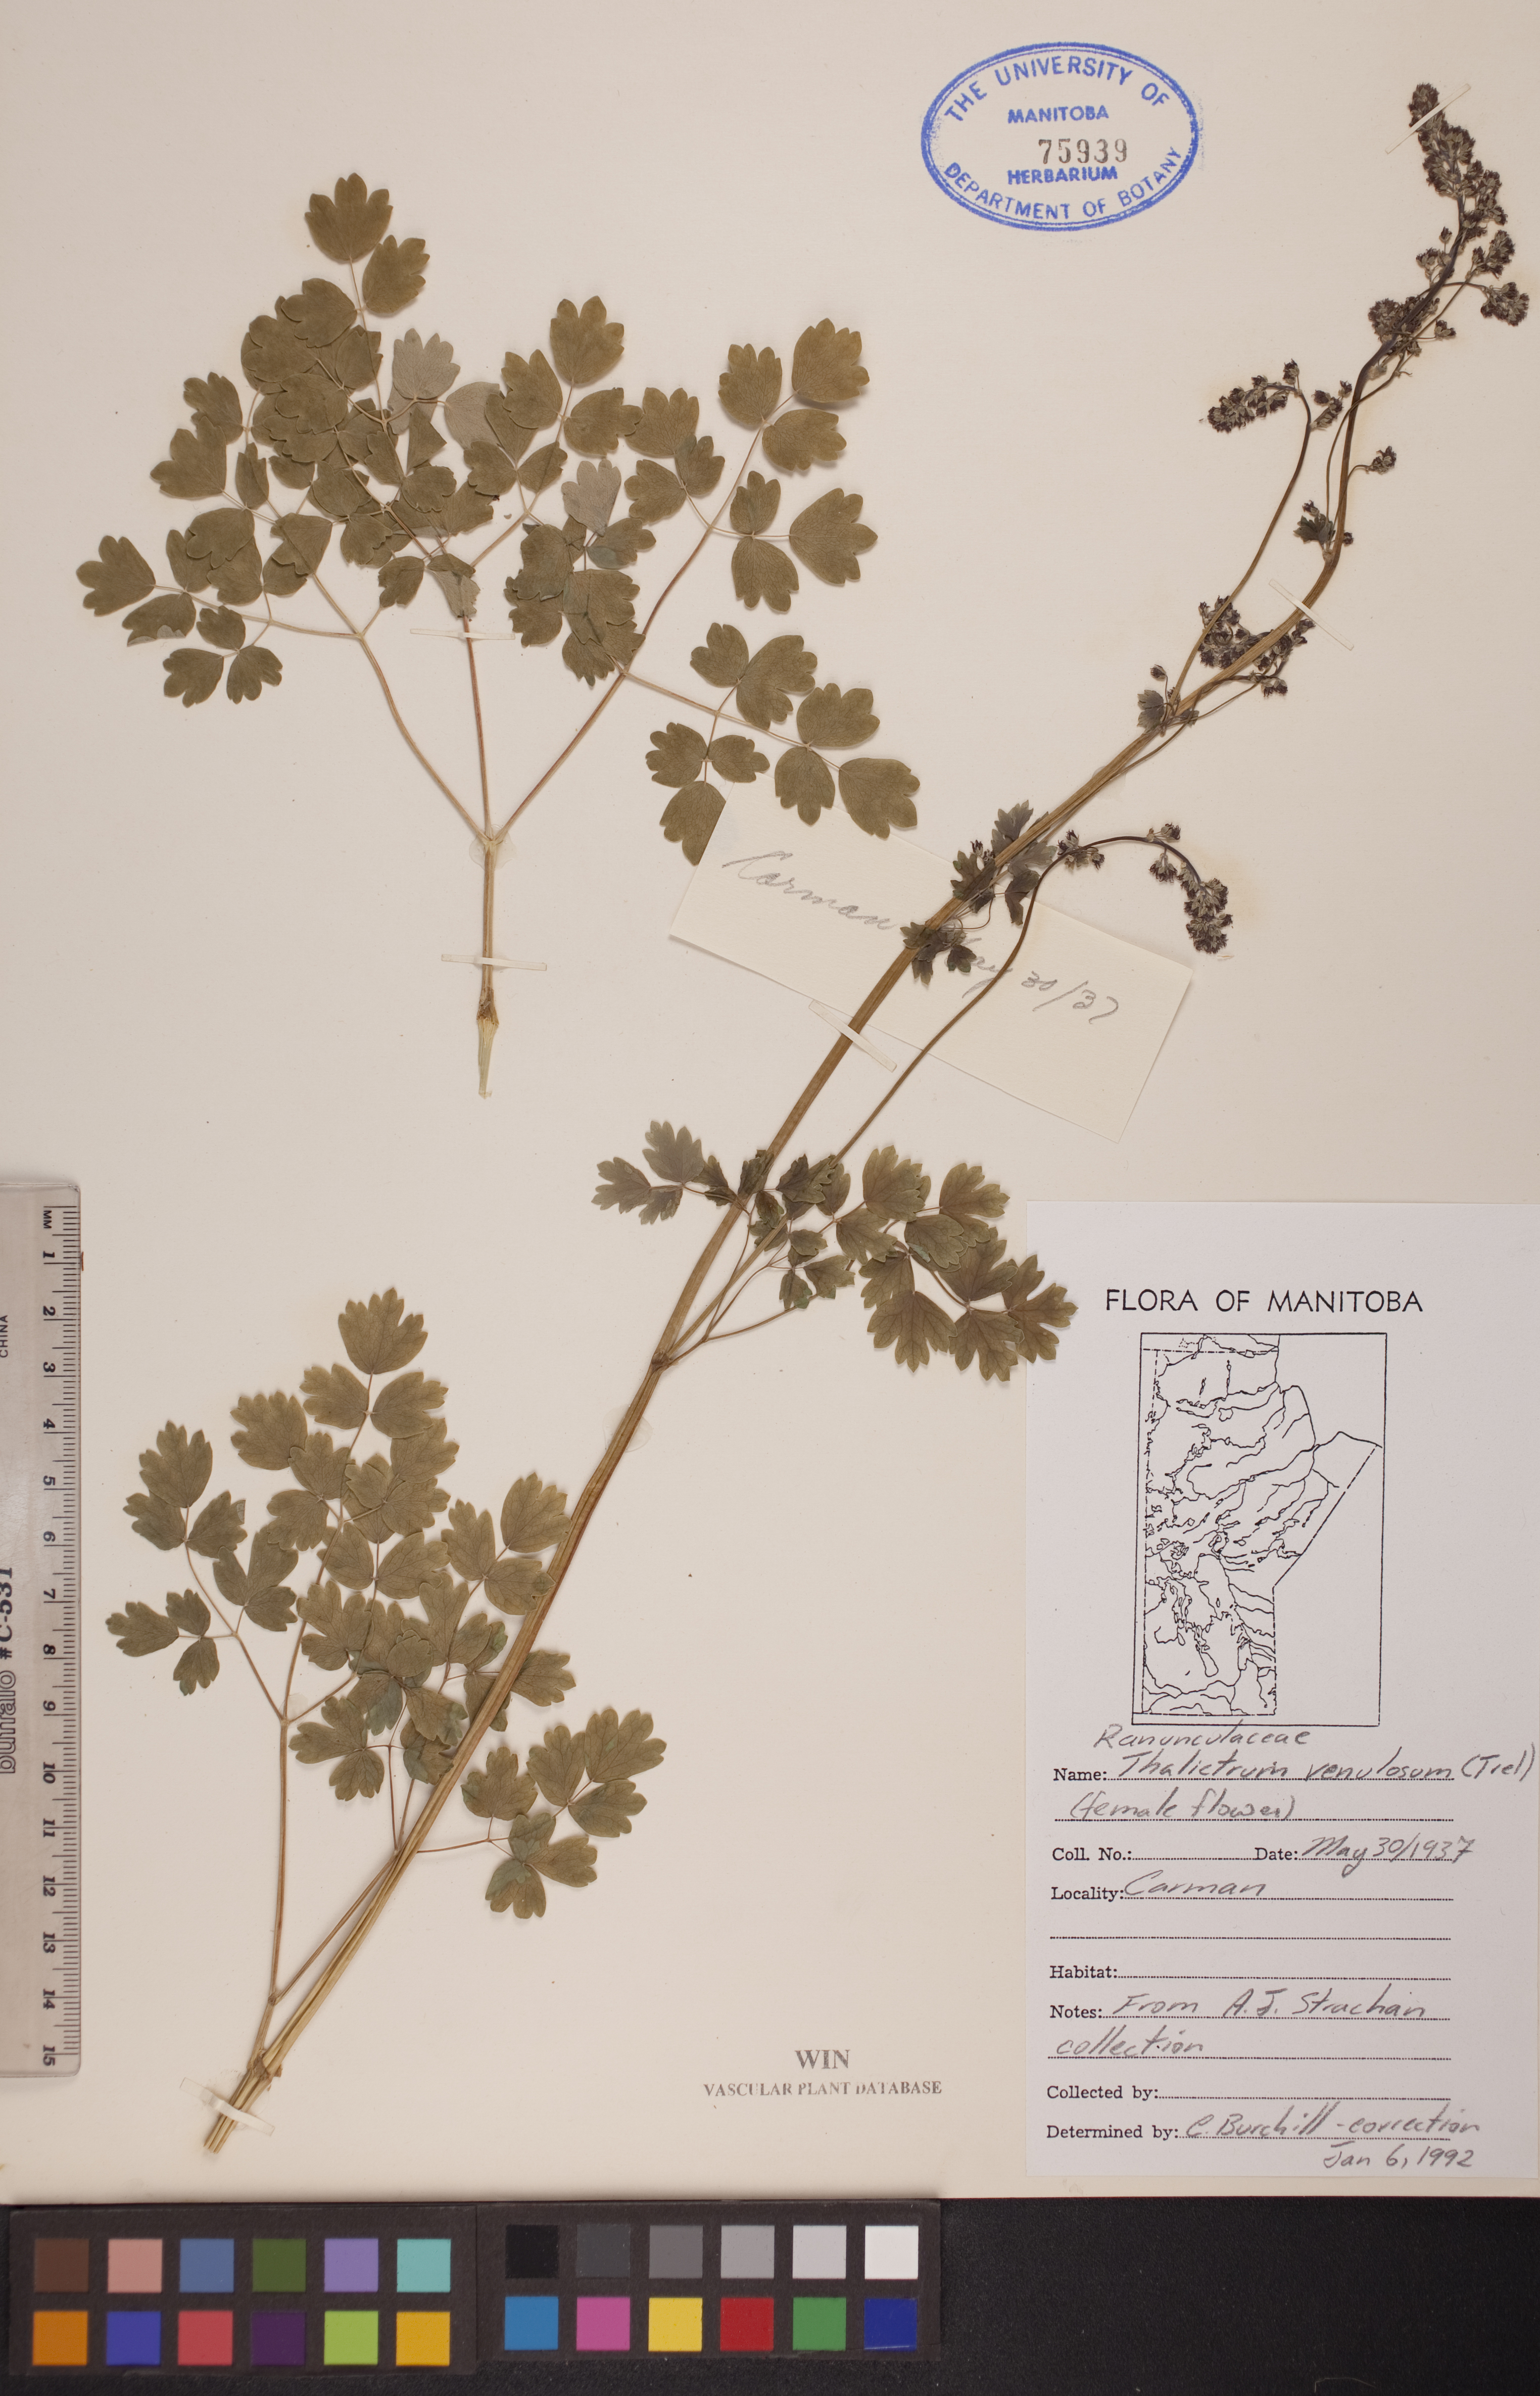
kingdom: Plantae
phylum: Tracheophyta
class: Magnoliopsida
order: Ranunculales
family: Ranunculaceae
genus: Thalictrum
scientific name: Thalictrum venulosum
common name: Early meadow-rue
